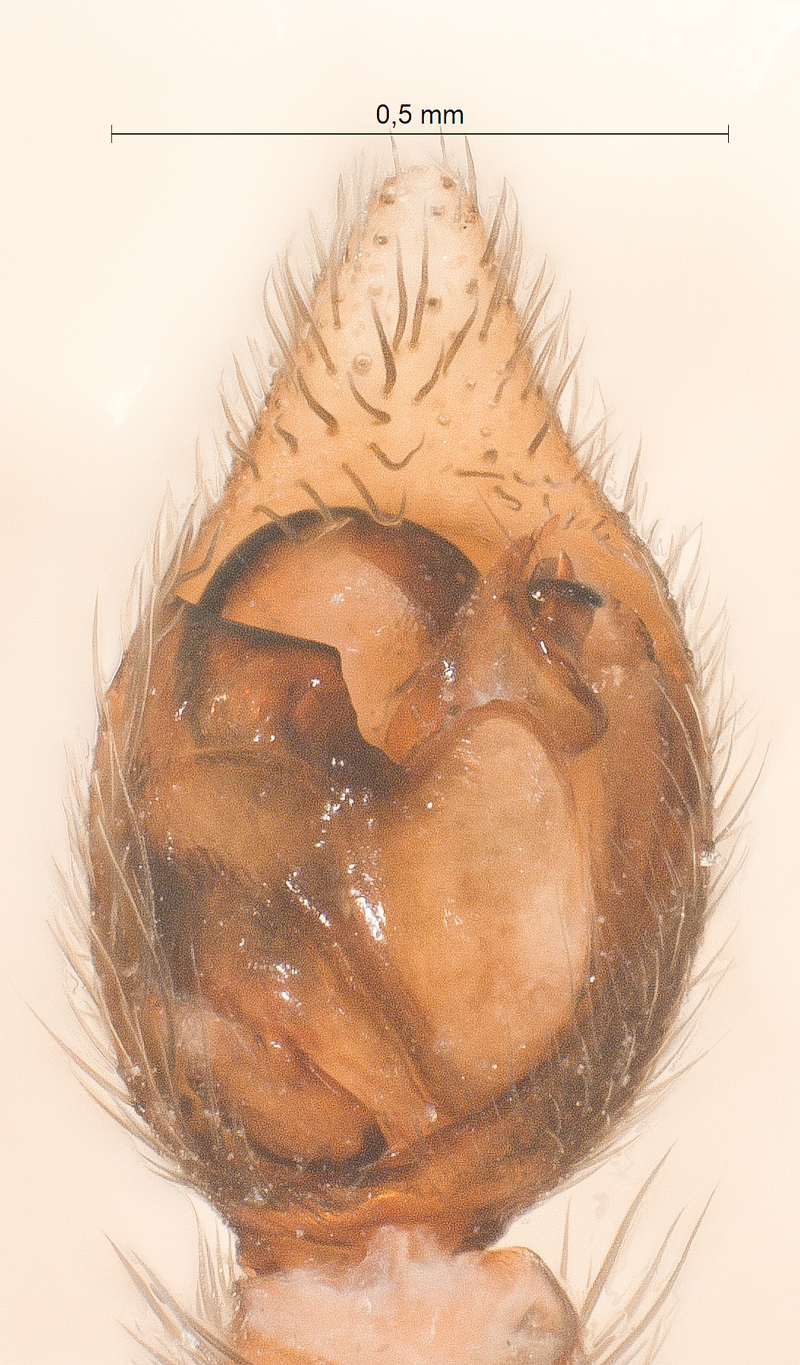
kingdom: Animalia
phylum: Arthropoda
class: Arachnida
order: Araneae
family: Lycosidae
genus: Xerolycosa
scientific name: Xerolycosa miniata
